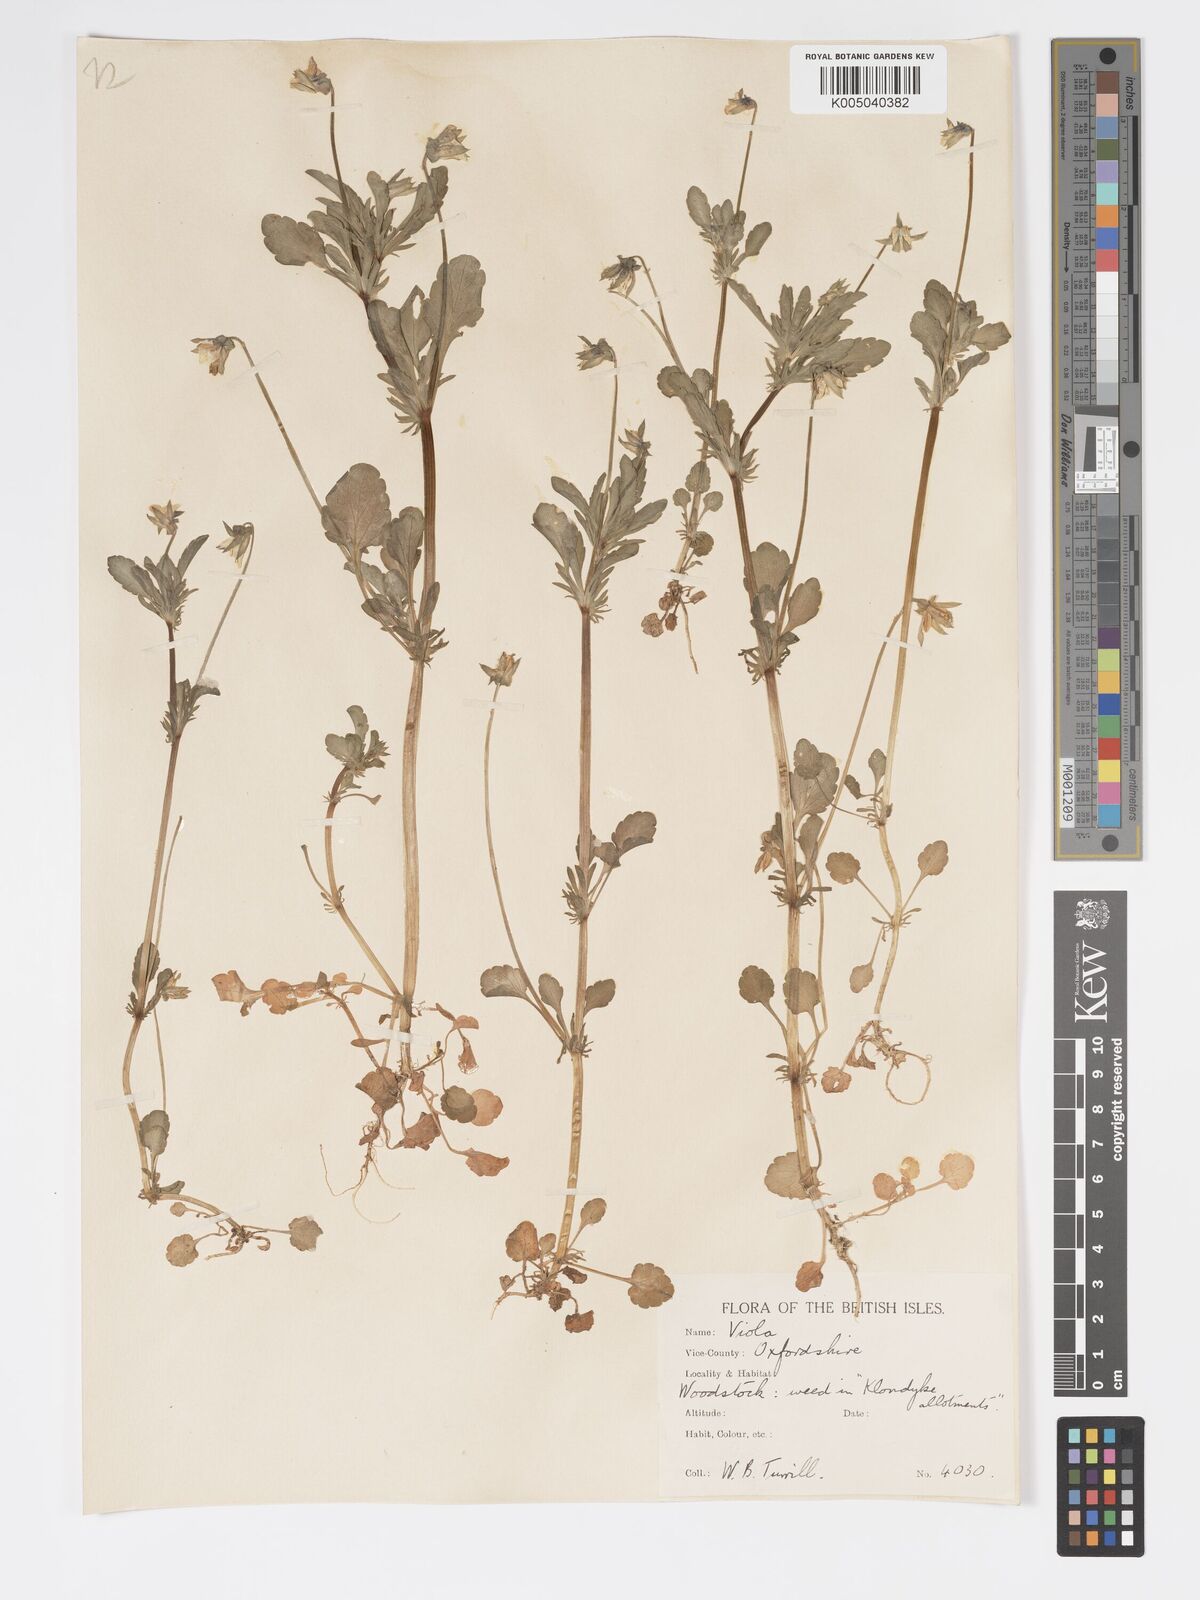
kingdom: Plantae
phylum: Tracheophyta
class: Magnoliopsida
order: Malpighiales
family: Violaceae
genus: Viola
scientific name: Viola arvensis
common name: Field pansy
